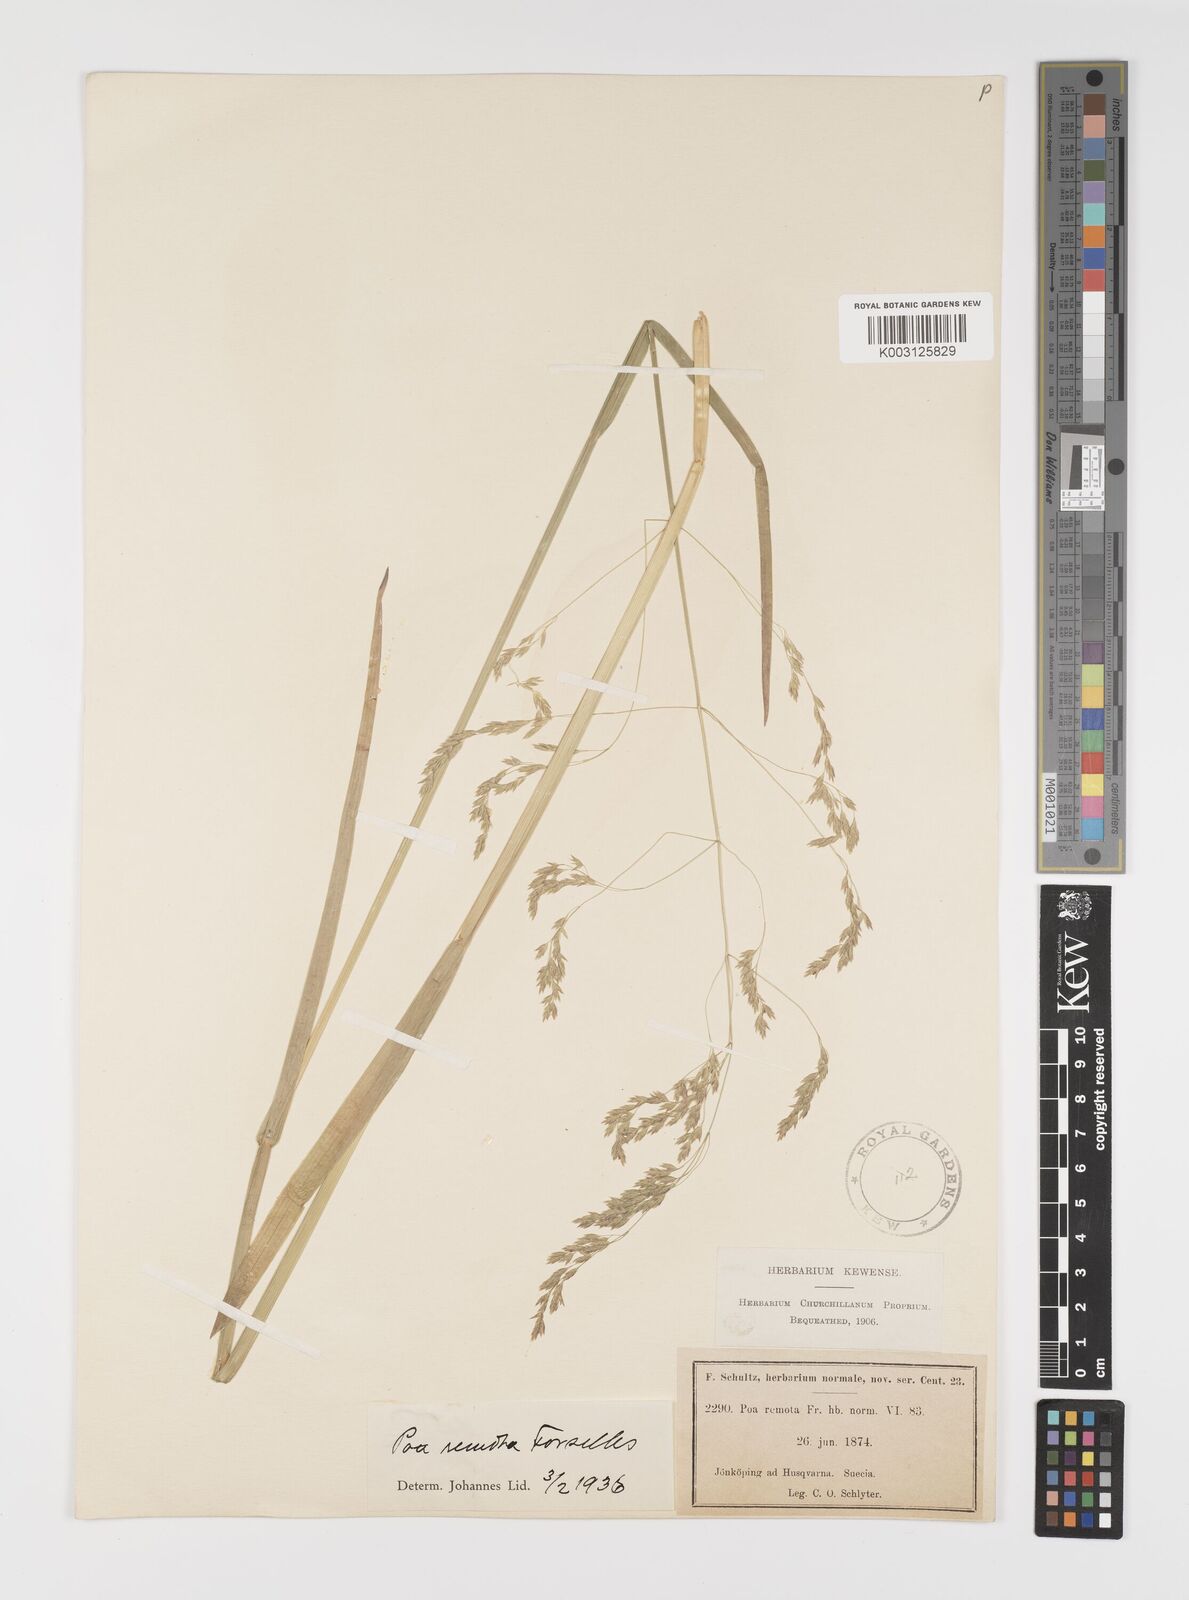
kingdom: Plantae
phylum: Tracheophyta
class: Liliopsida
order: Poales
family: Poaceae
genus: Poa
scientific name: Poa remota
